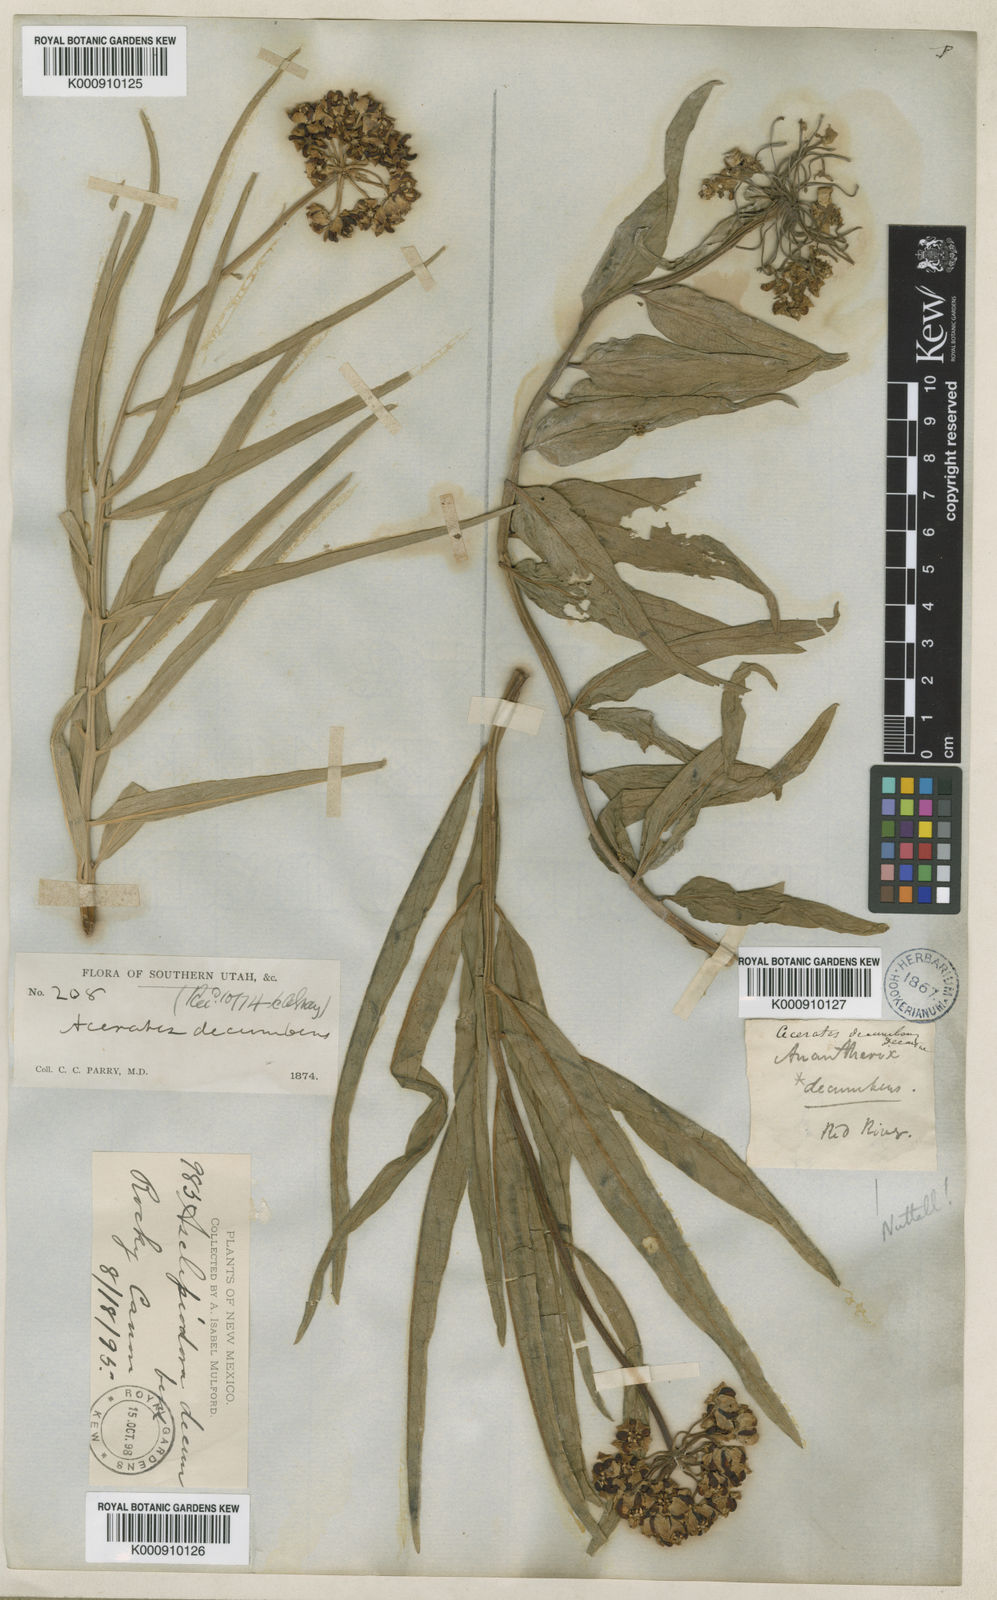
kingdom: Plantae
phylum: Tracheophyta
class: Magnoliopsida
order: Gentianales
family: Apocynaceae
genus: Asclepias
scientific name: Asclepias asperula
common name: Antelope horns
